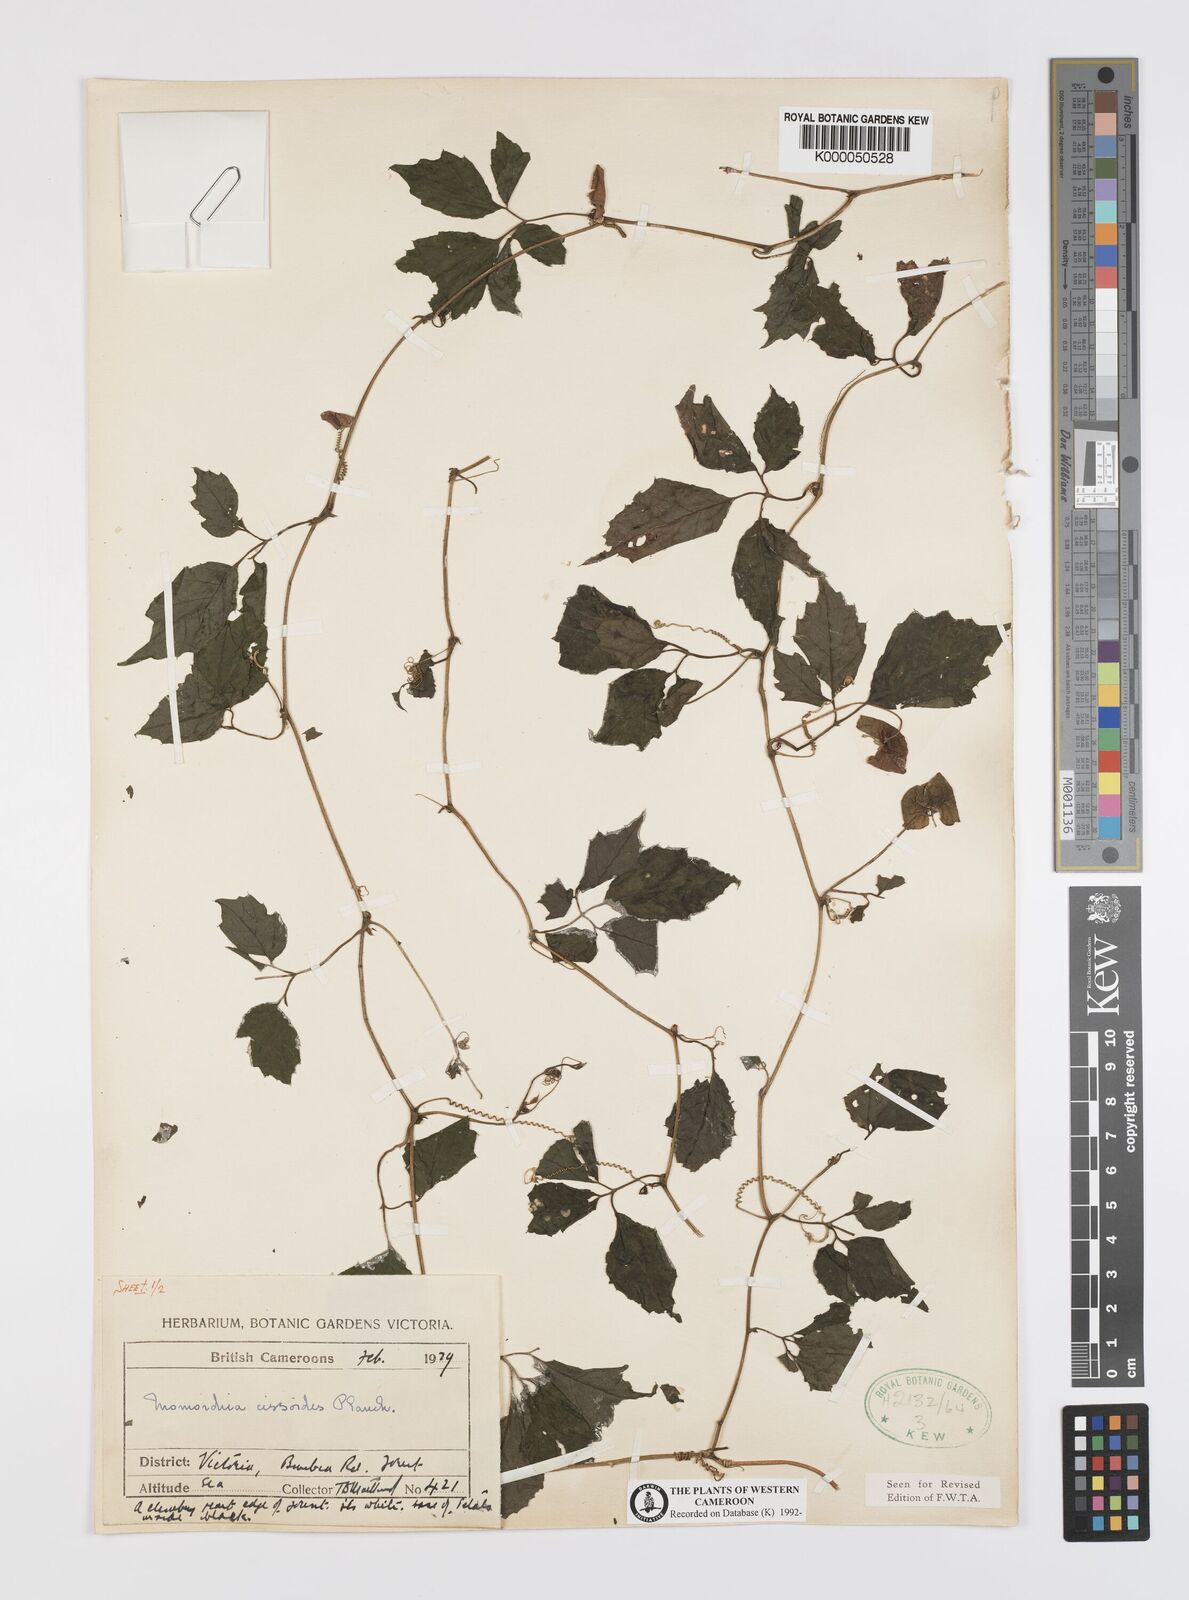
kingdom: Plantae
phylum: Tracheophyta
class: Magnoliopsida
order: Cucurbitales
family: Cucurbitaceae
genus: Momordica
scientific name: Momordica cissoides
